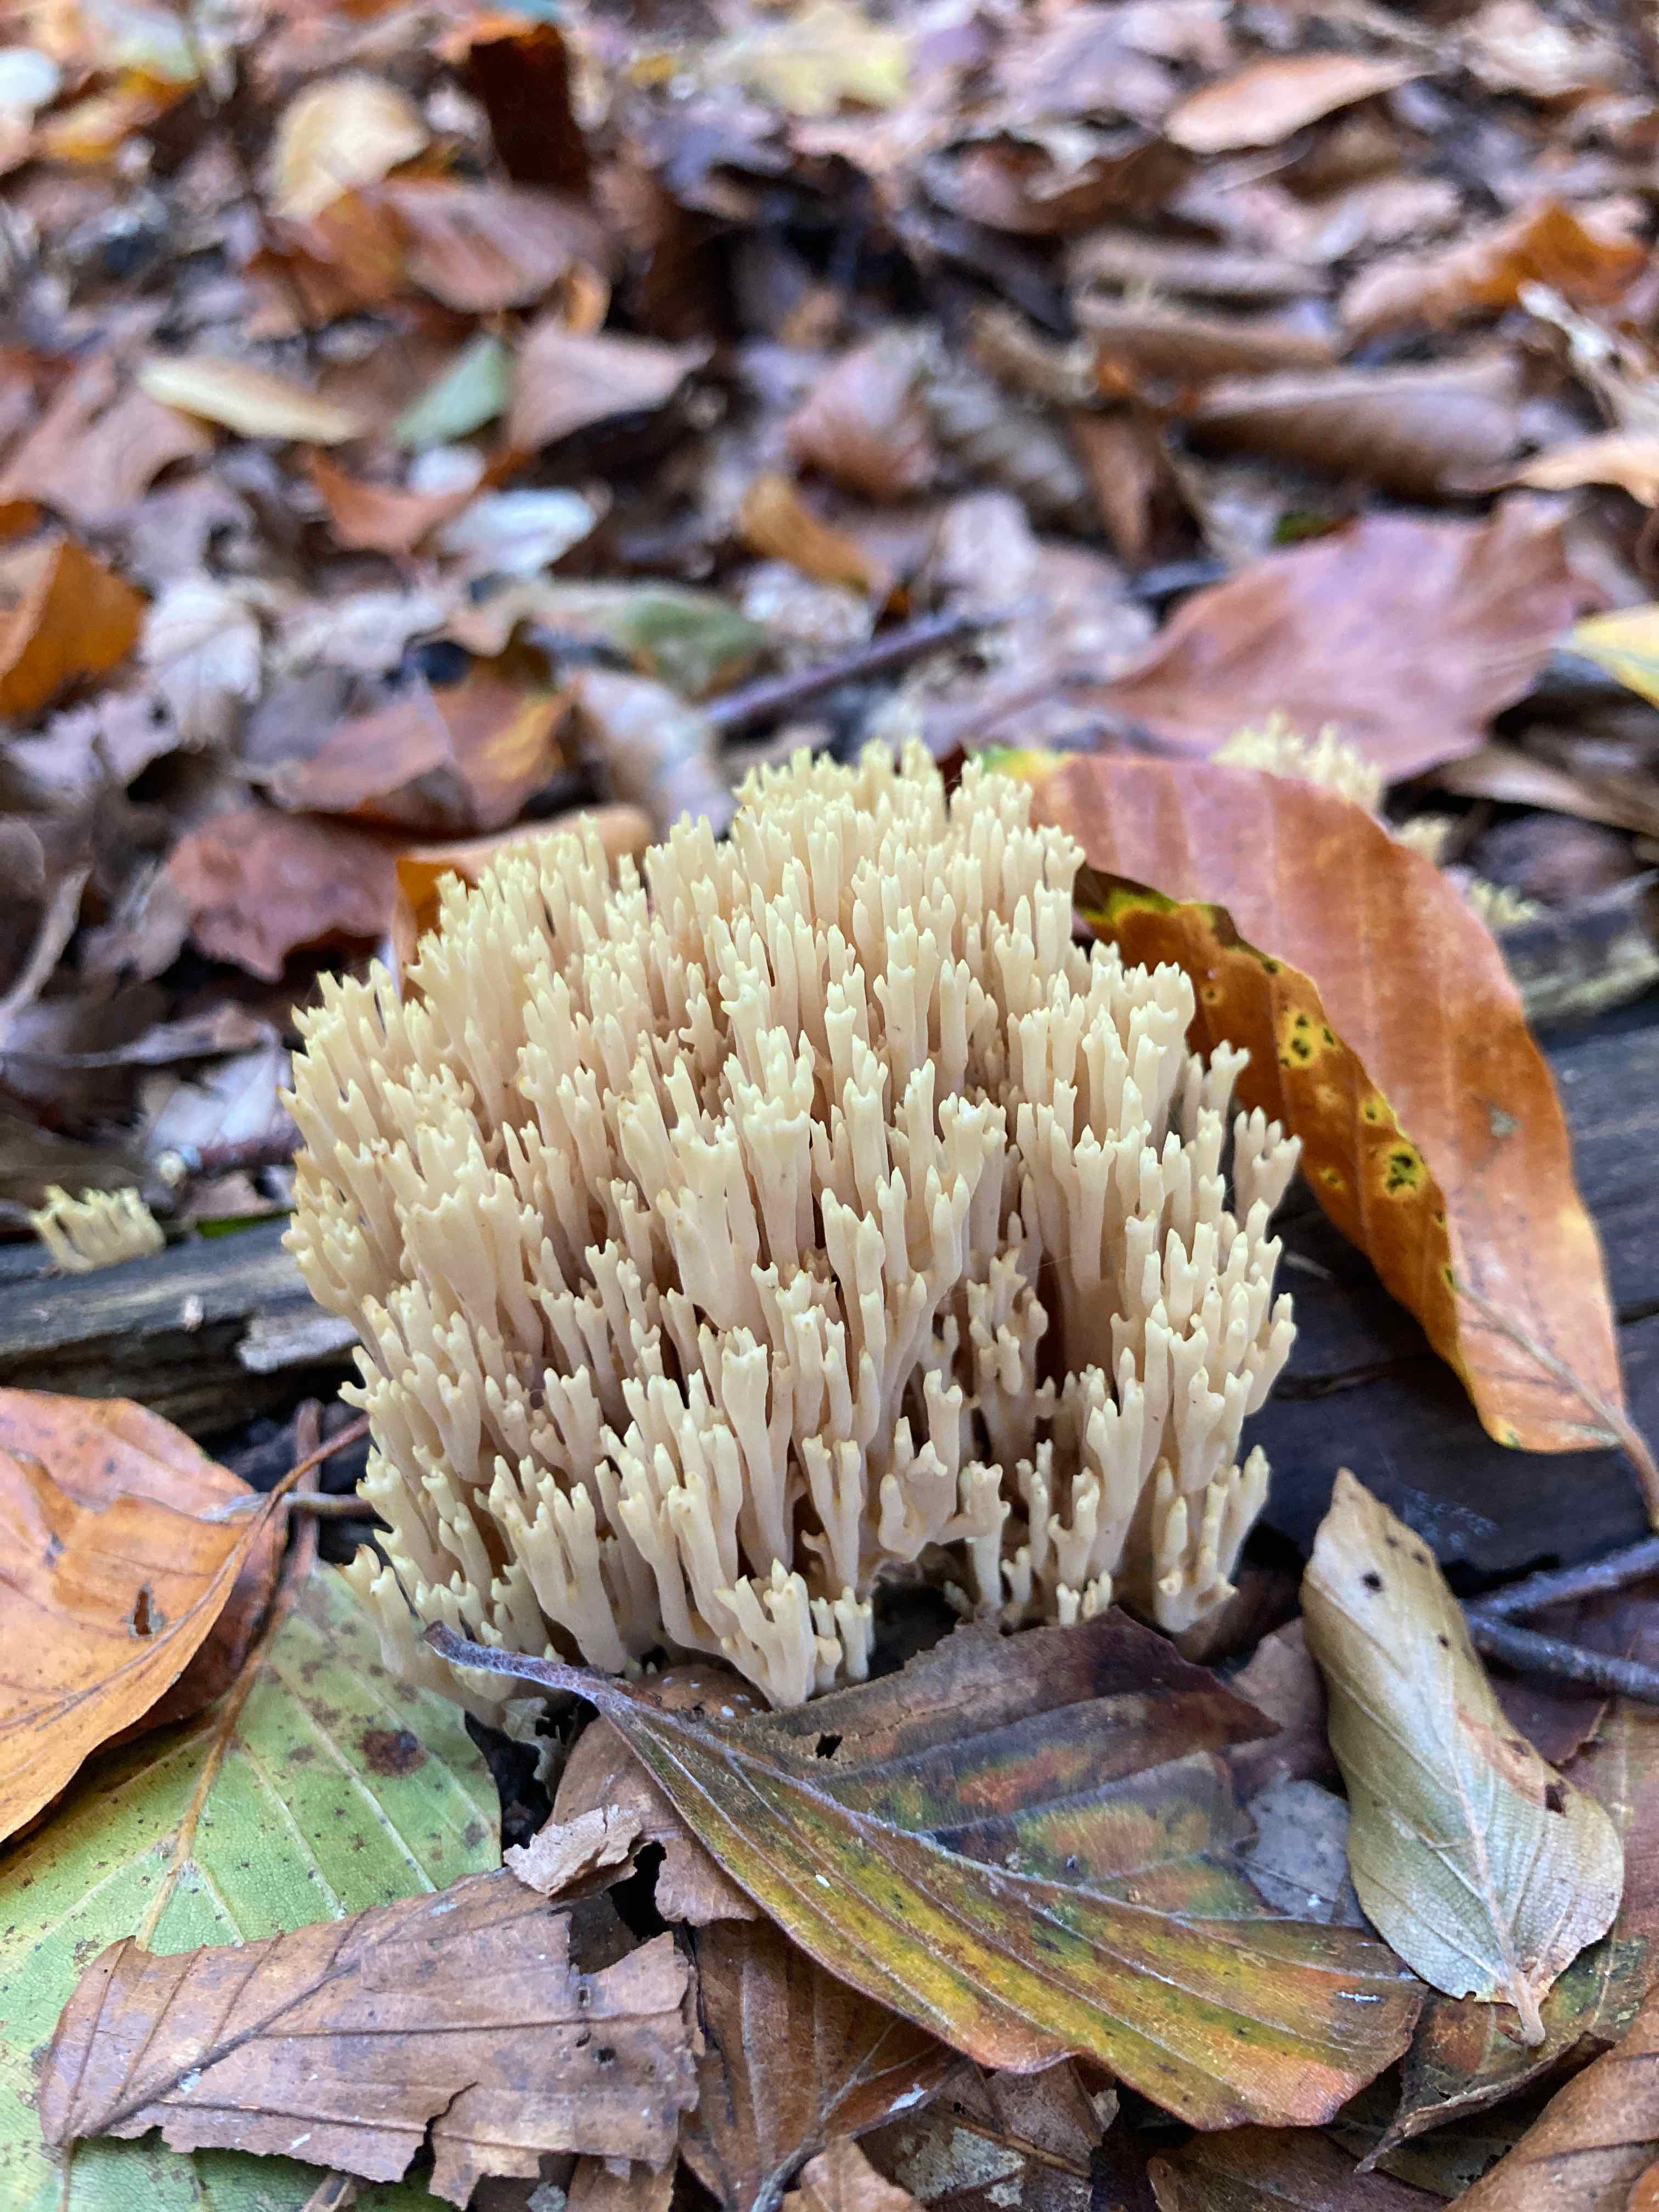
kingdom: Fungi
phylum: Basidiomycota
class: Agaricomycetes
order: Gomphales
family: Gomphaceae
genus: Ramaria
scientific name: Ramaria stricta
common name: rank koralsvamp
